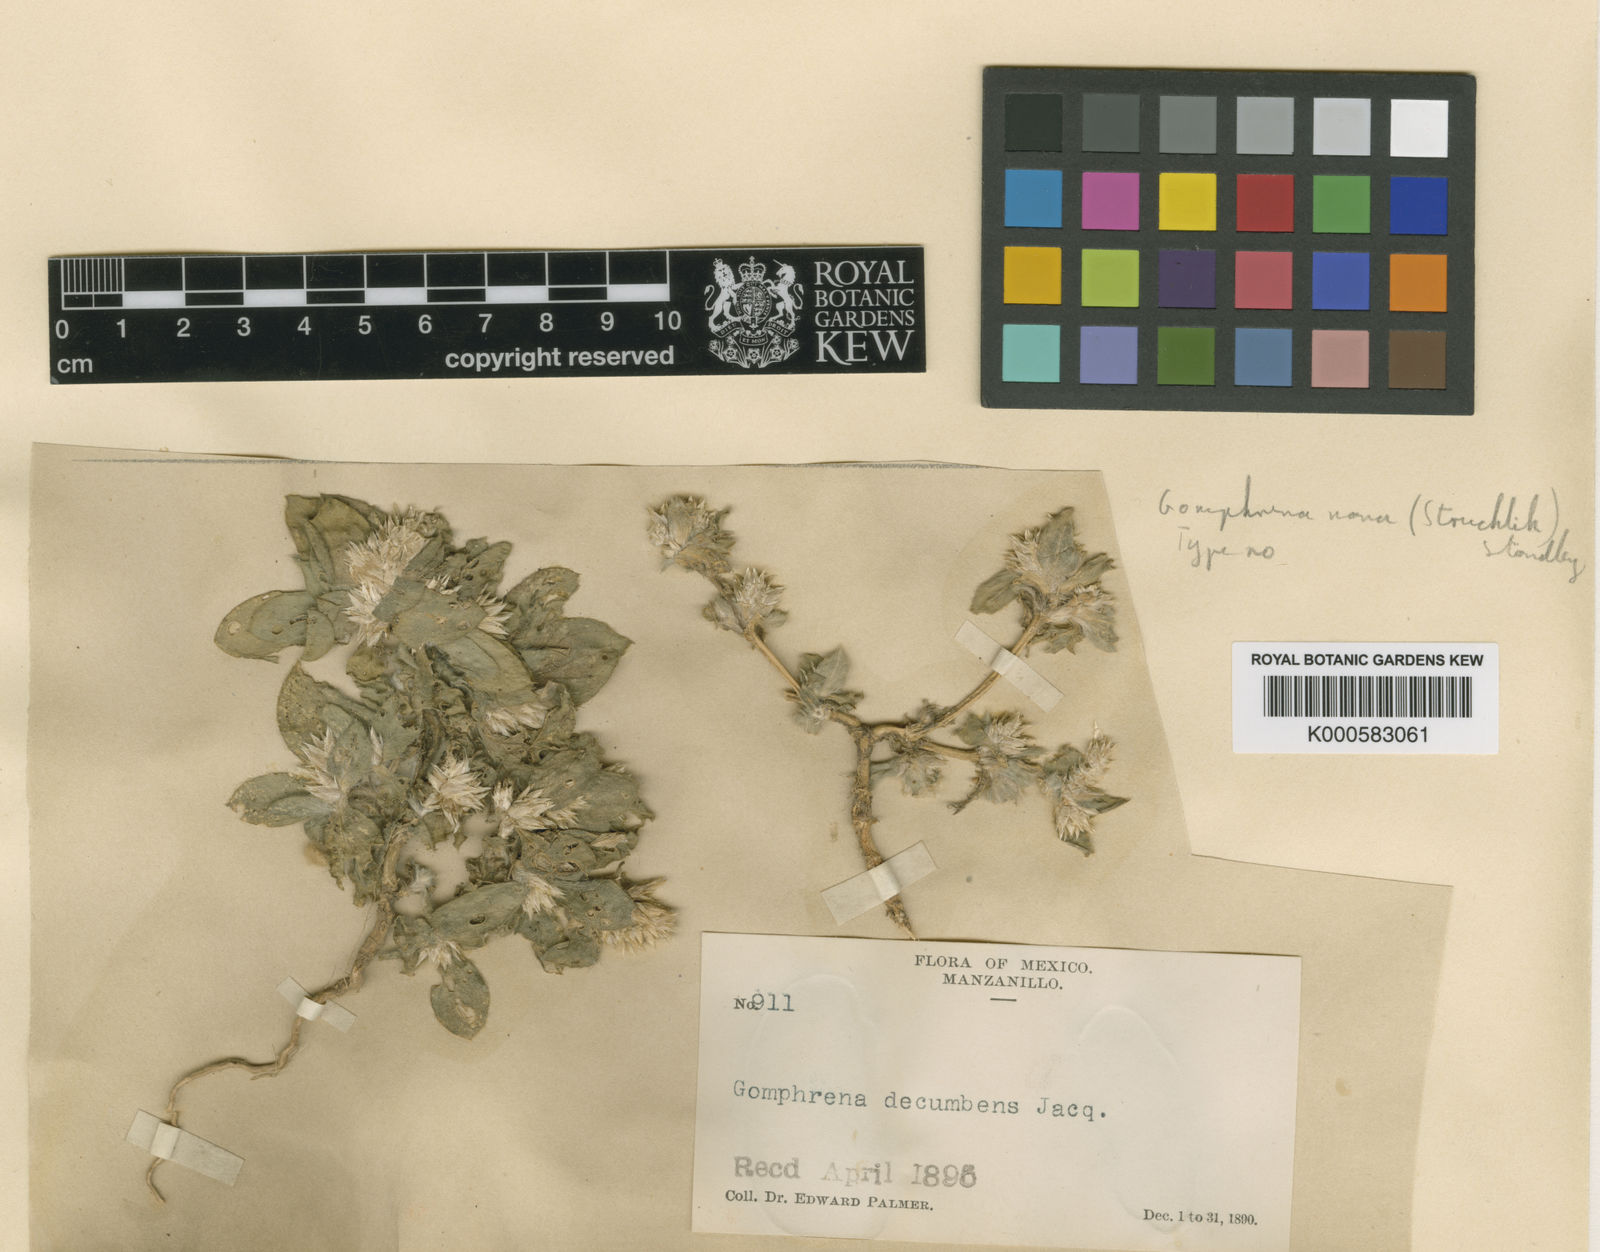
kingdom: Plantae
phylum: Tracheophyta
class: Magnoliopsida
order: Caryophyllales
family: Amaranthaceae
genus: Gomphrena
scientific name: Gomphrena filaginoides
